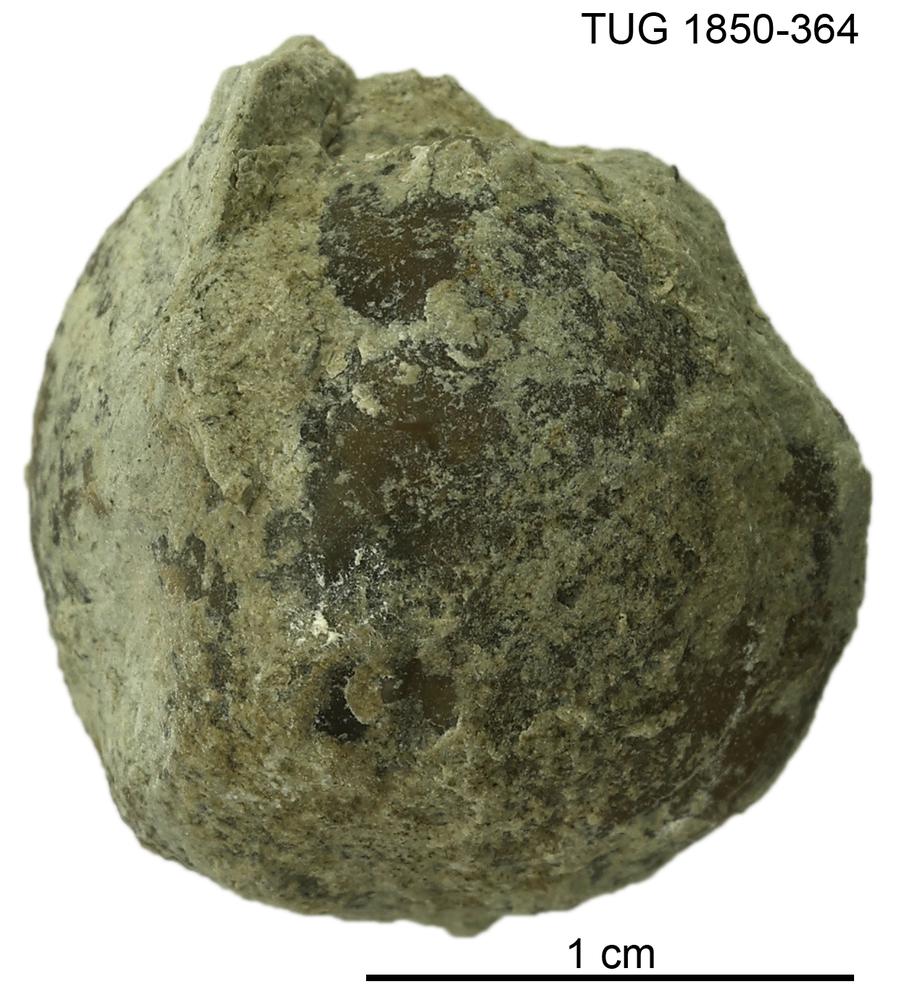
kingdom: Animalia
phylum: Brachiopoda
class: Rhynchonellata
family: Atrypidae
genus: Atrypa
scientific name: Atrypa
